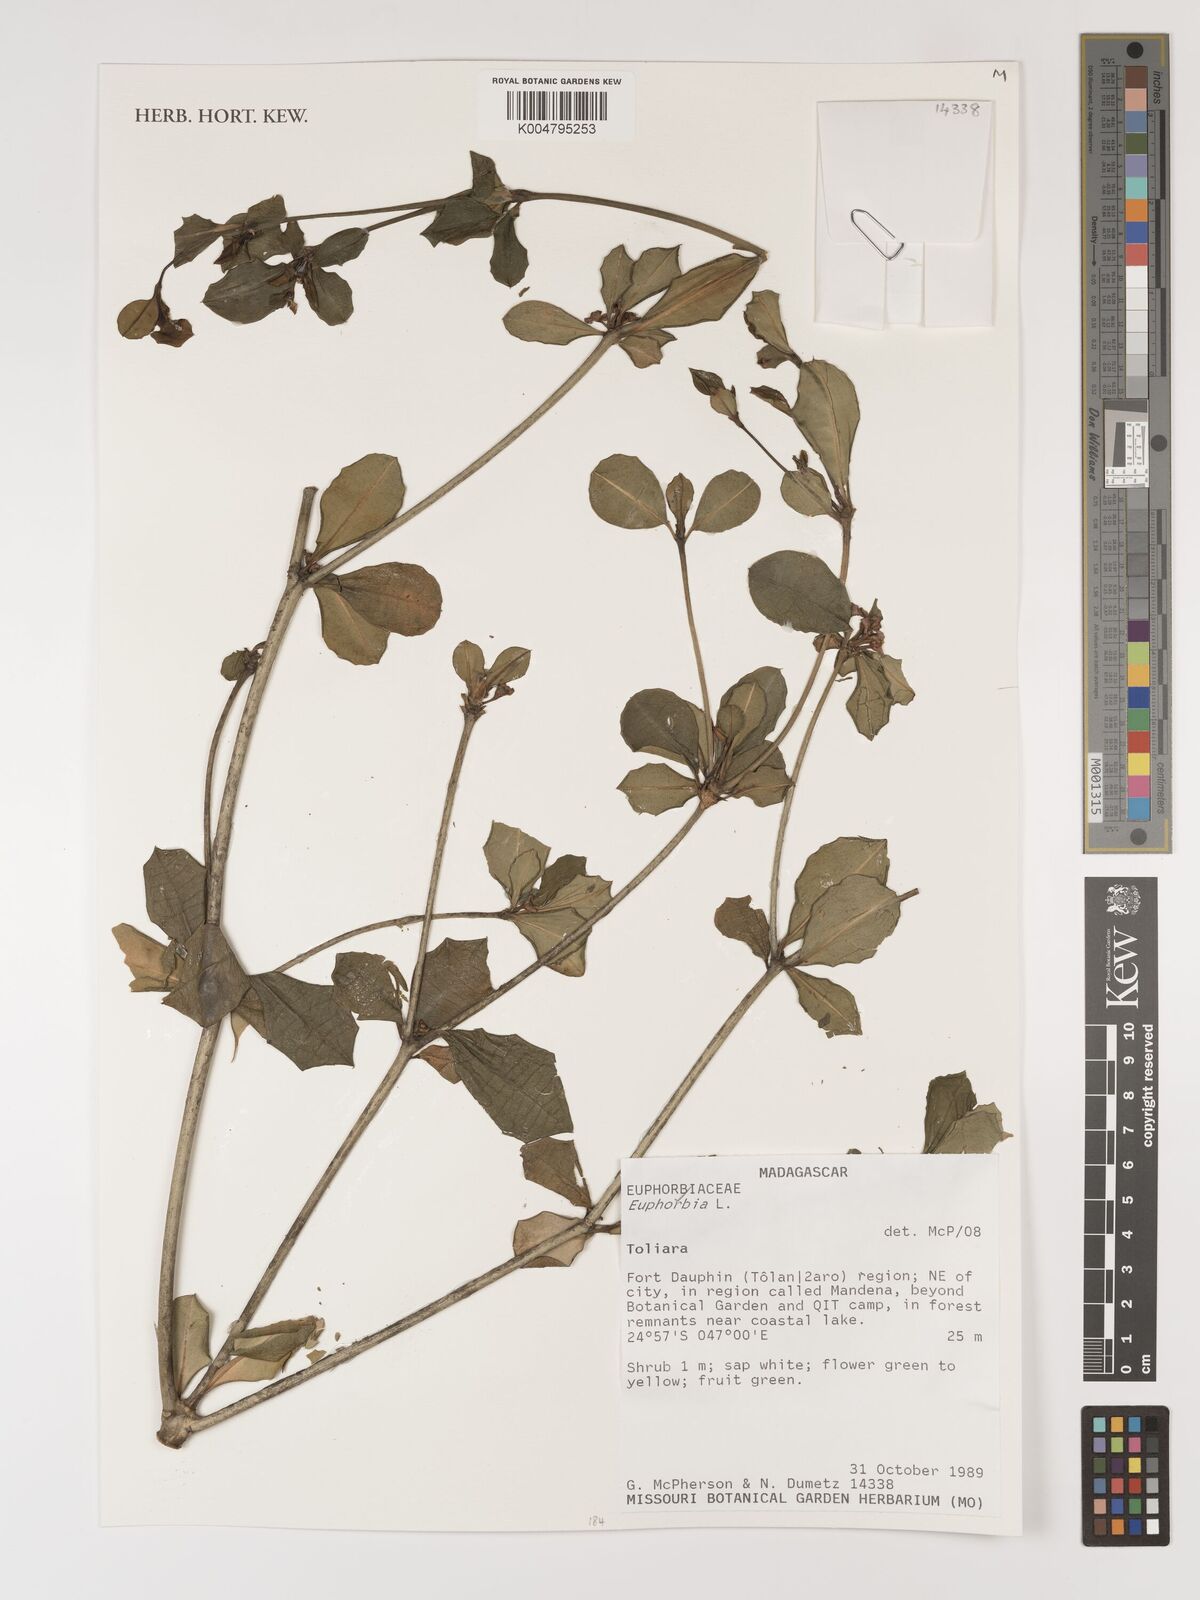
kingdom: Plantae
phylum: Tracheophyta
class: Magnoliopsida
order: Malpighiales
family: Euphorbiaceae
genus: Euphorbia
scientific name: Euphorbia
